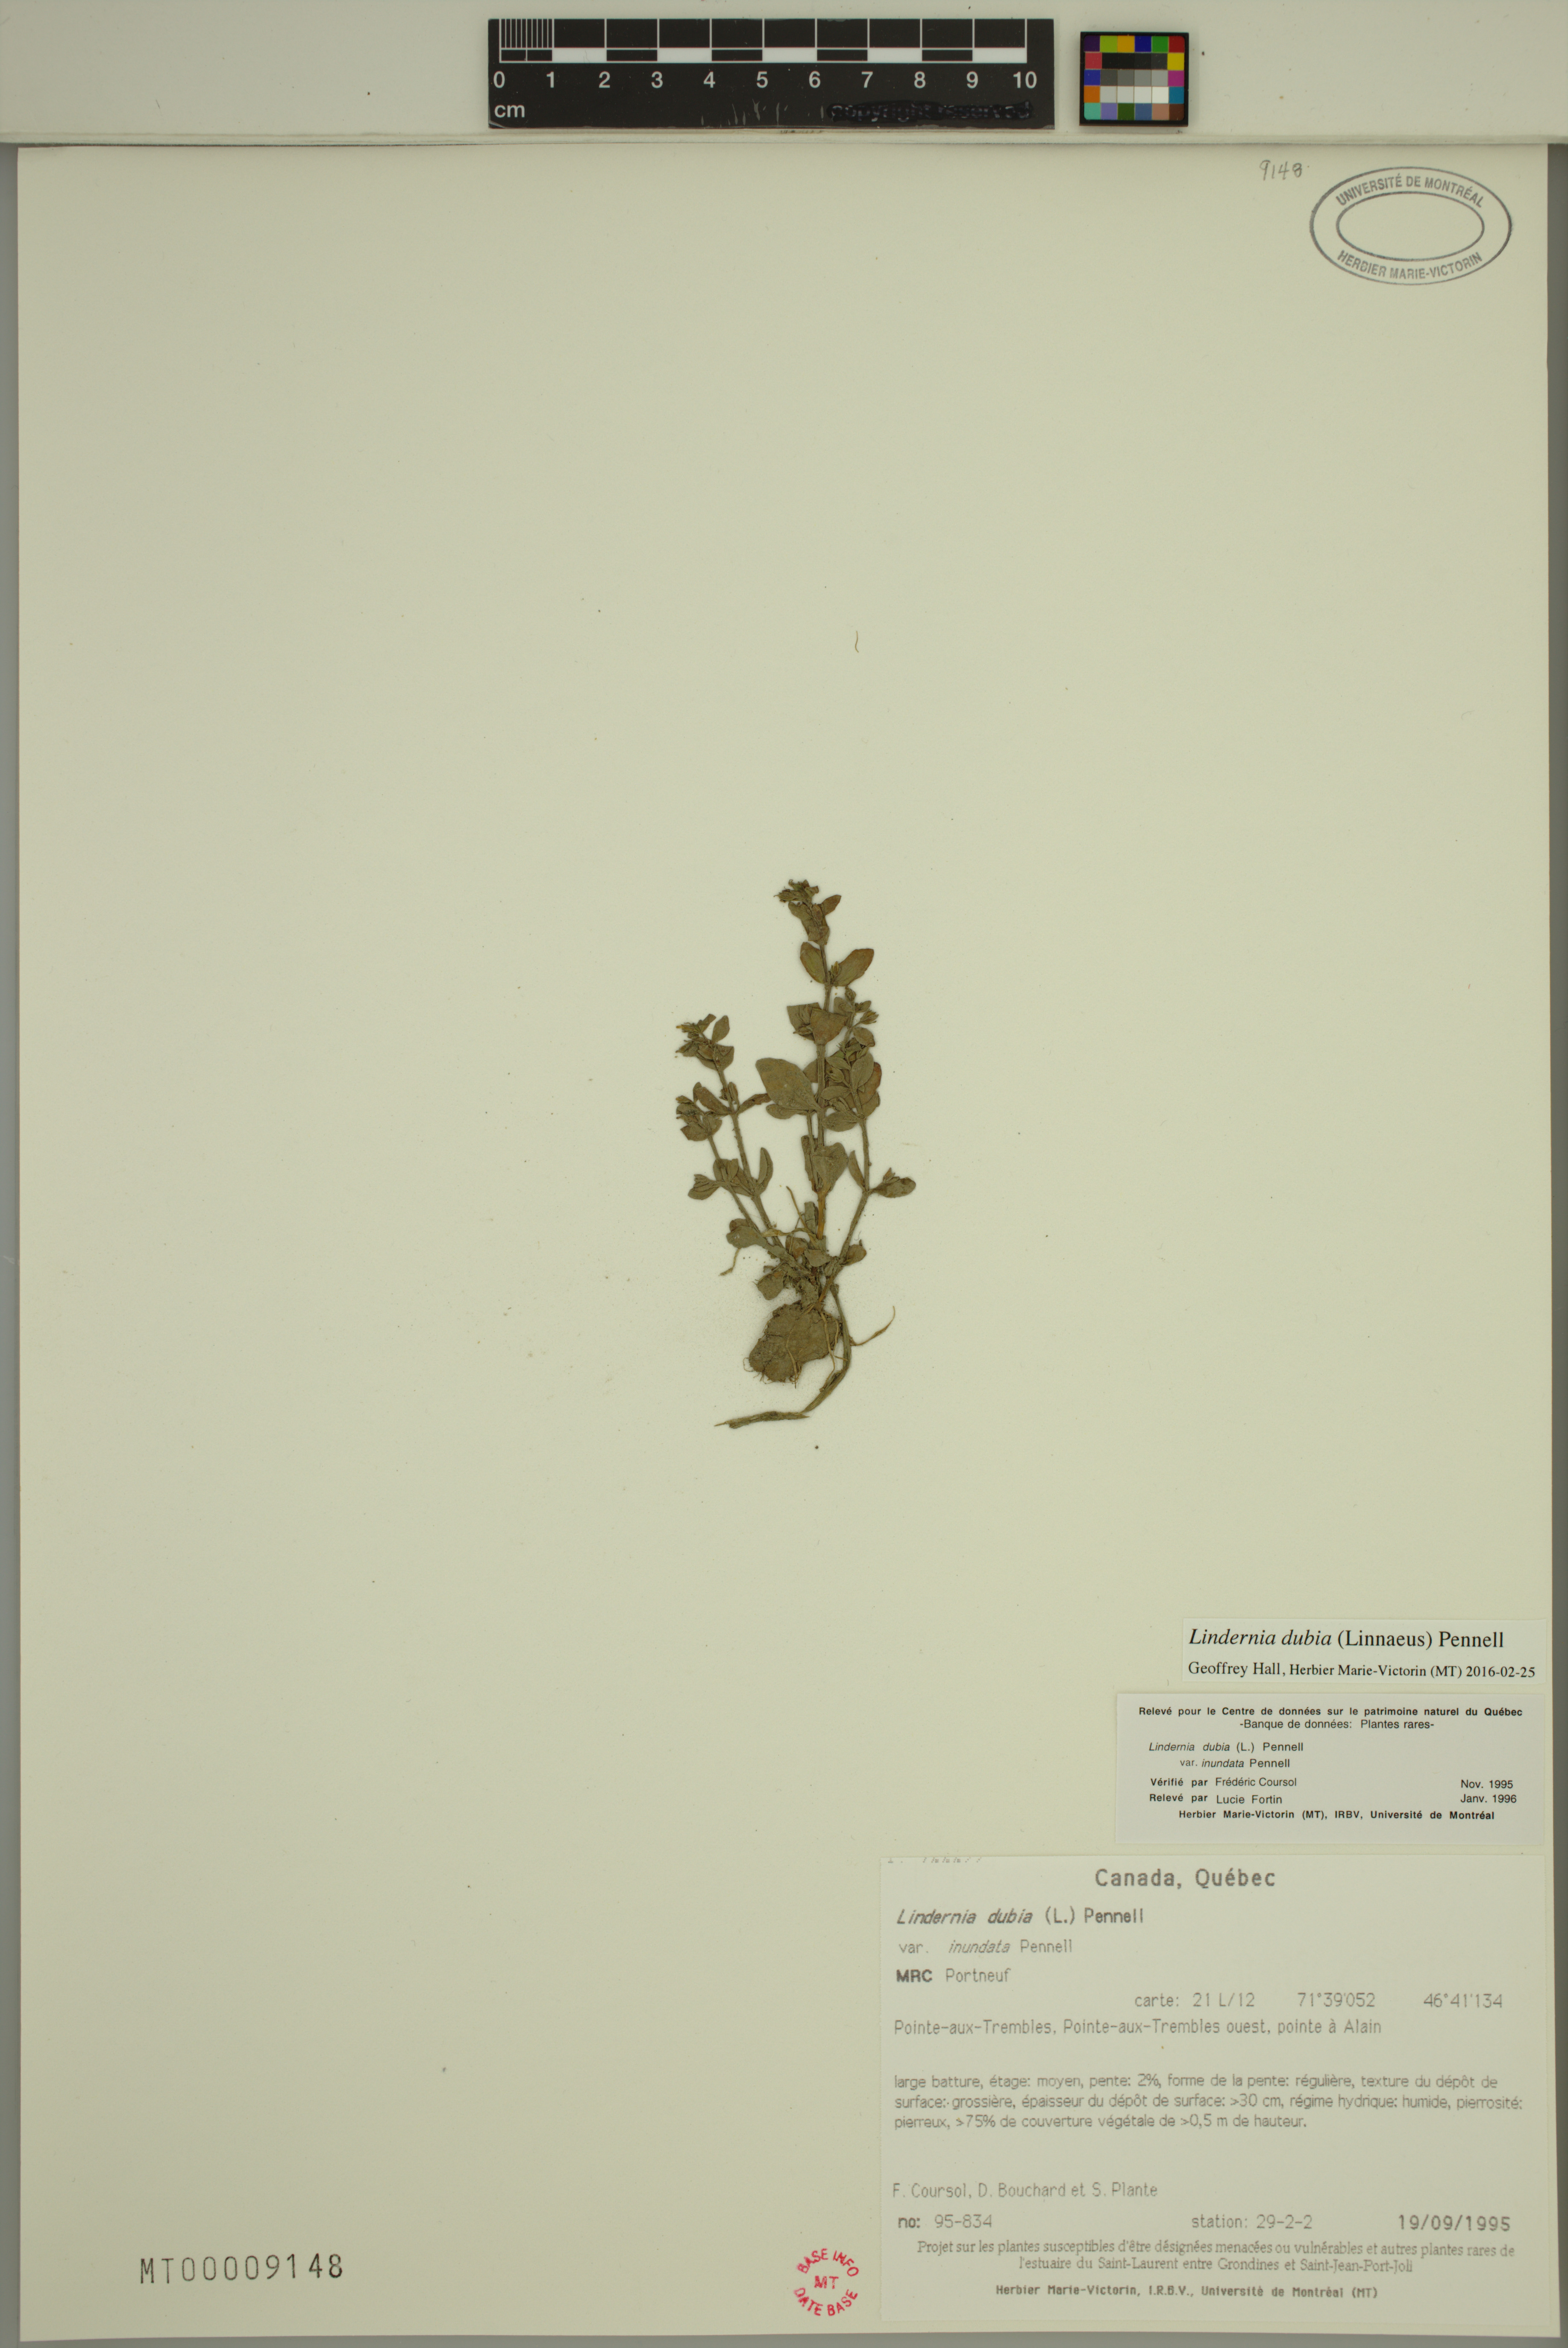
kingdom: Plantae
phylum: Tracheophyta
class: Magnoliopsida
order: Lamiales
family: Linderniaceae
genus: Lindernia
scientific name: Lindernia dubia
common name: Annual false pimpernel
